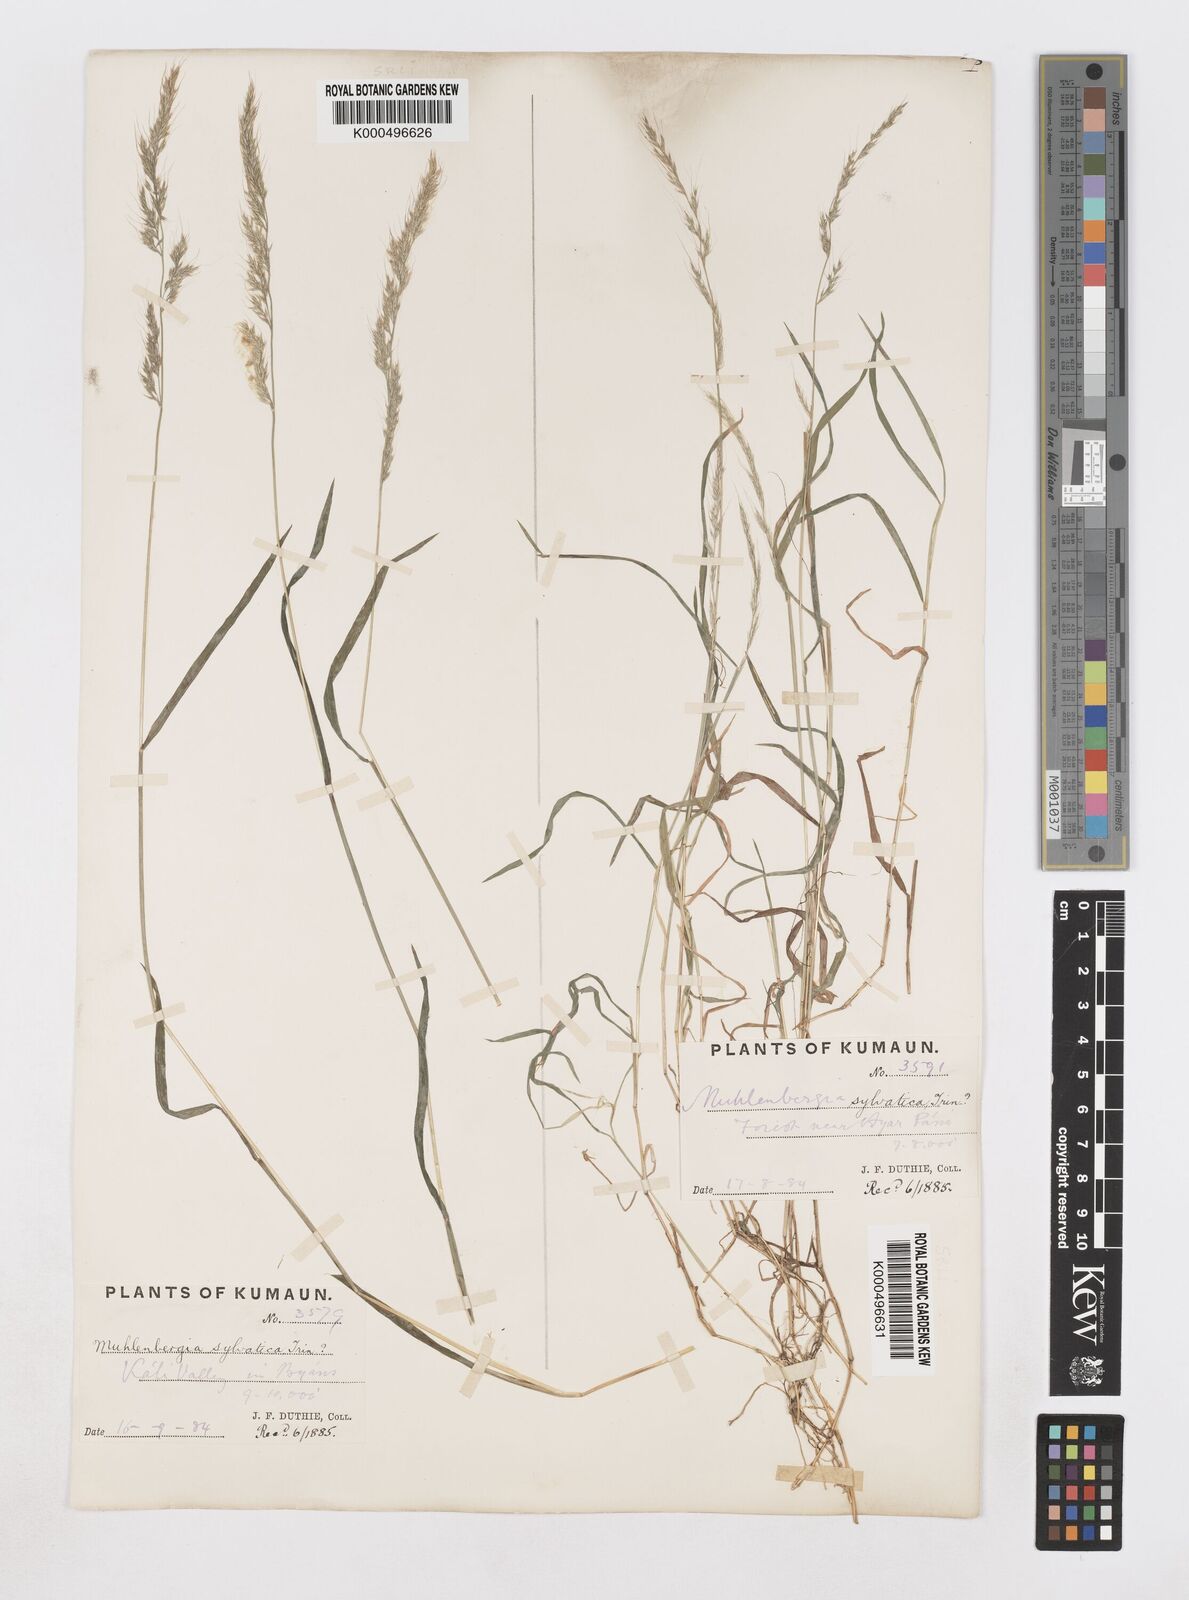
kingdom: Plantae
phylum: Tracheophyta
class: Liliopsida
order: Poales
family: Poaceae
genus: Muhlenbergia
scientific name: Muhlenbergia duthieana
